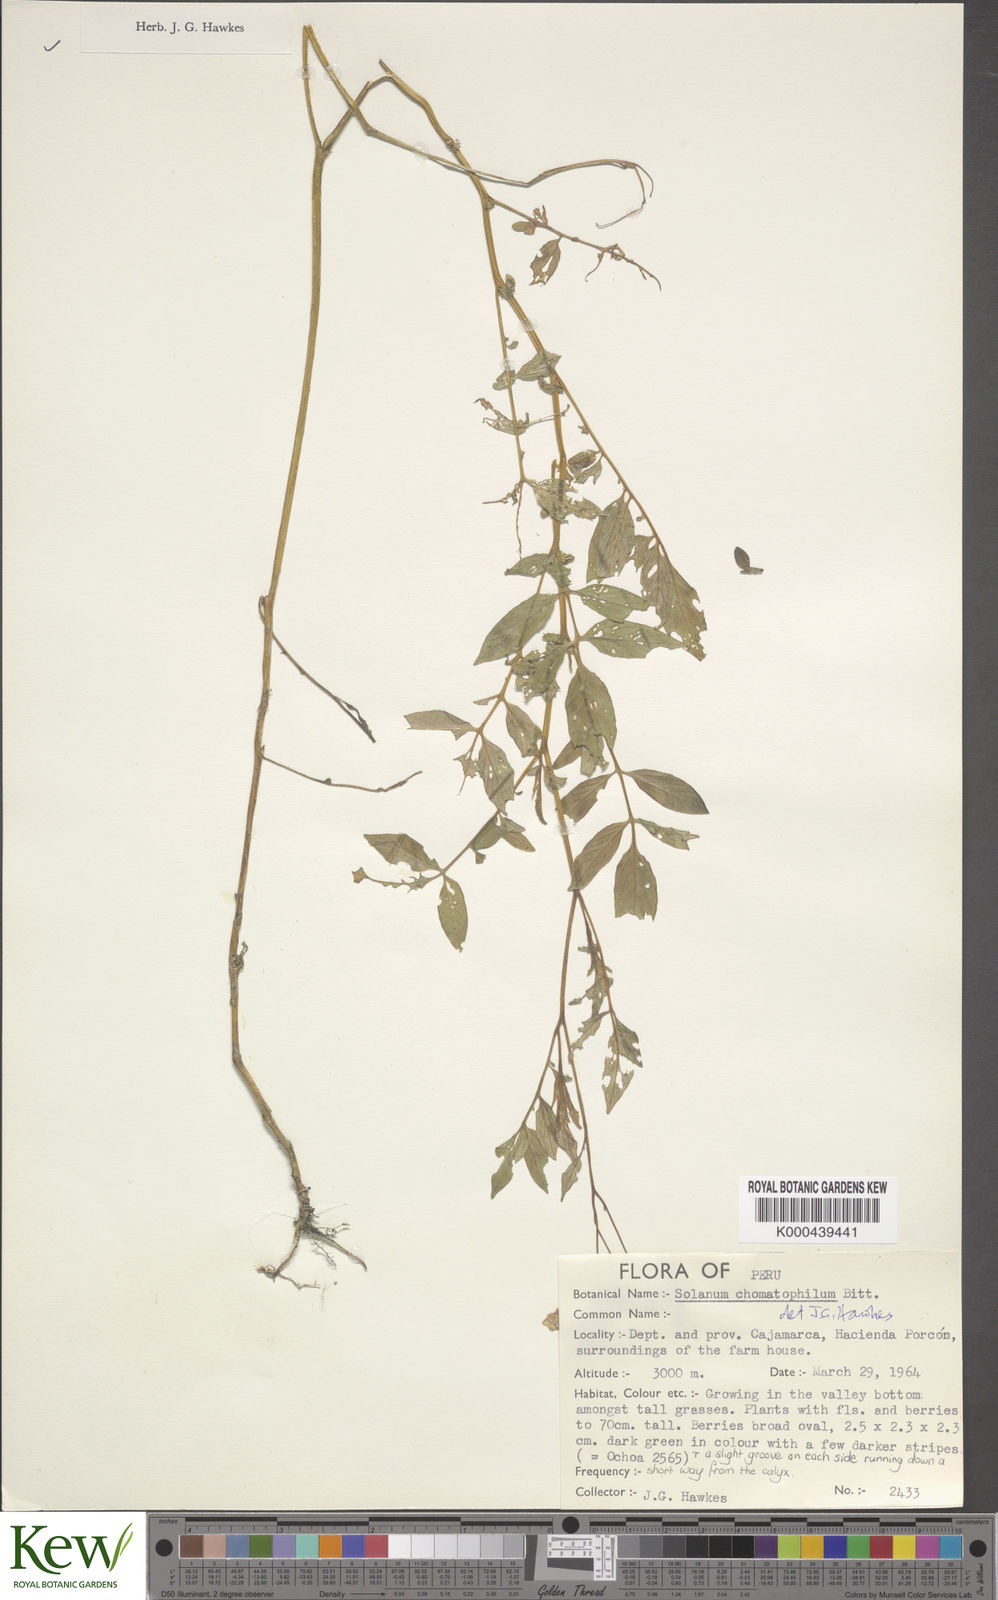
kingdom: Plantae
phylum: Tracheophyta
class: Magnoliopsida
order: Solanales
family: Solanaceae
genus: Solanum
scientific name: Solanum chomatophilum
